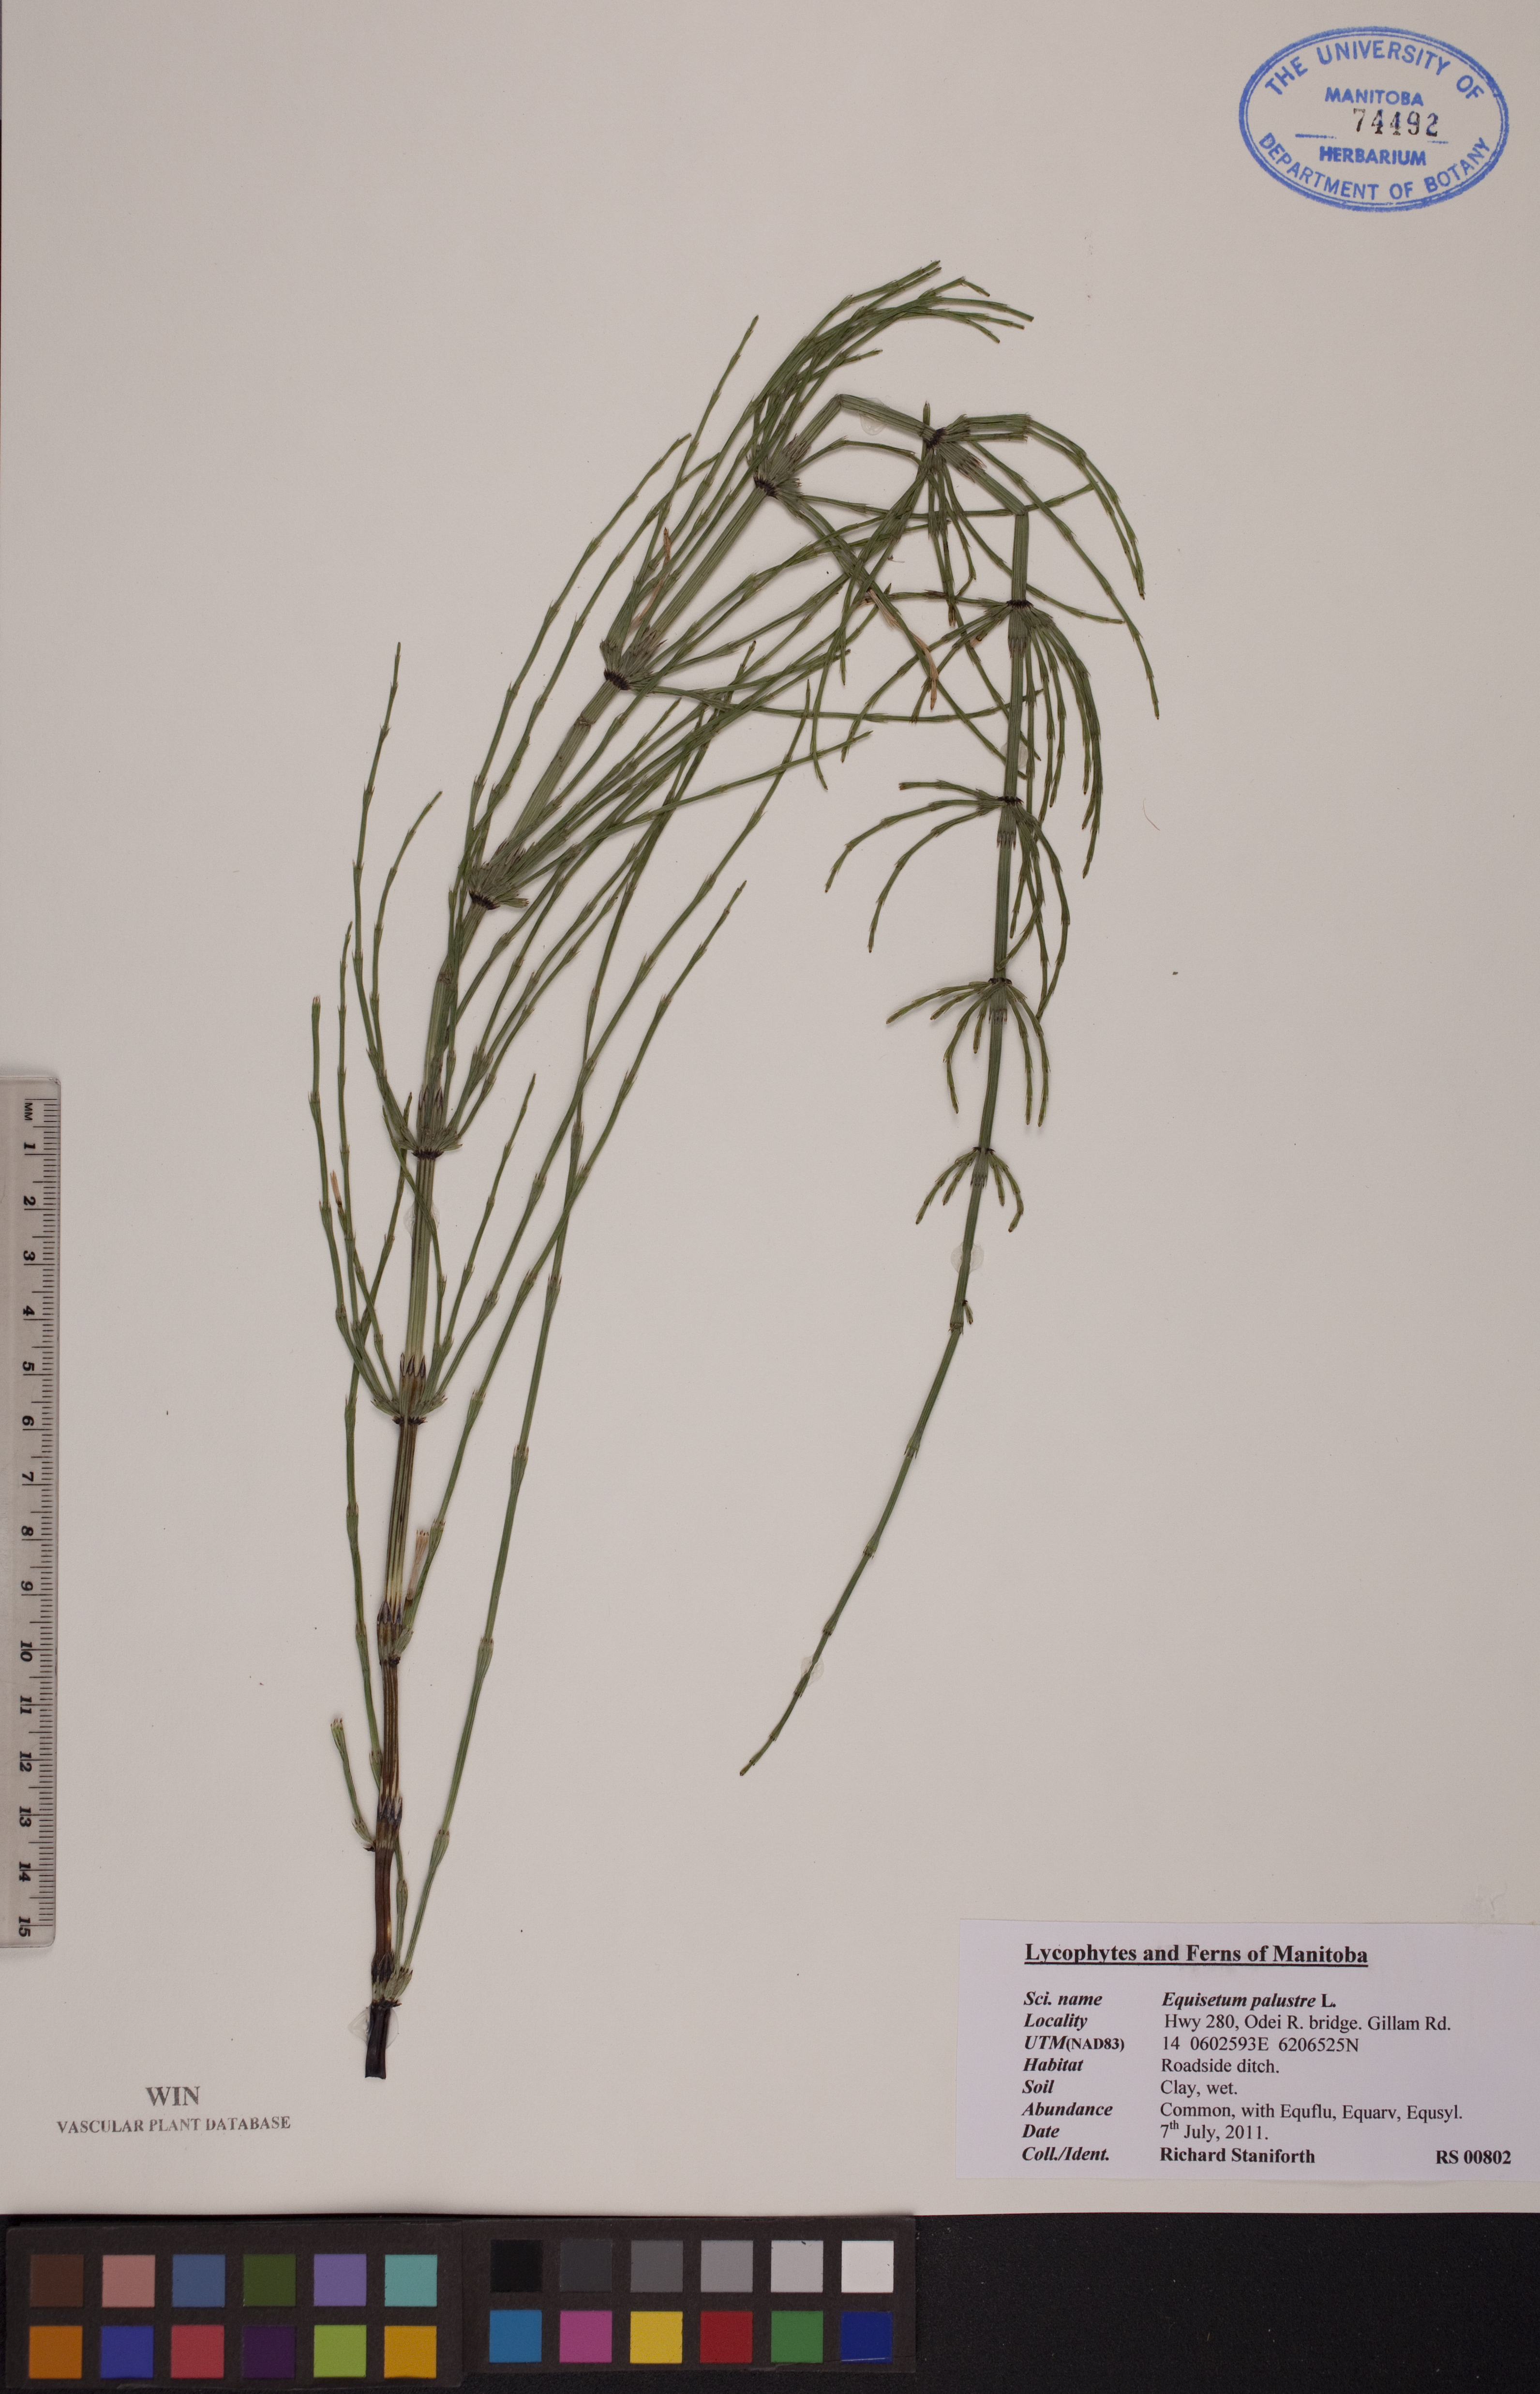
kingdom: Plantae
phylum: Tracheophyta
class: Polypodiopsida
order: Equisetales
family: Equisetaceae
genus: Equisetum
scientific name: Equisetum palustre
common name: Marsh horsetail
